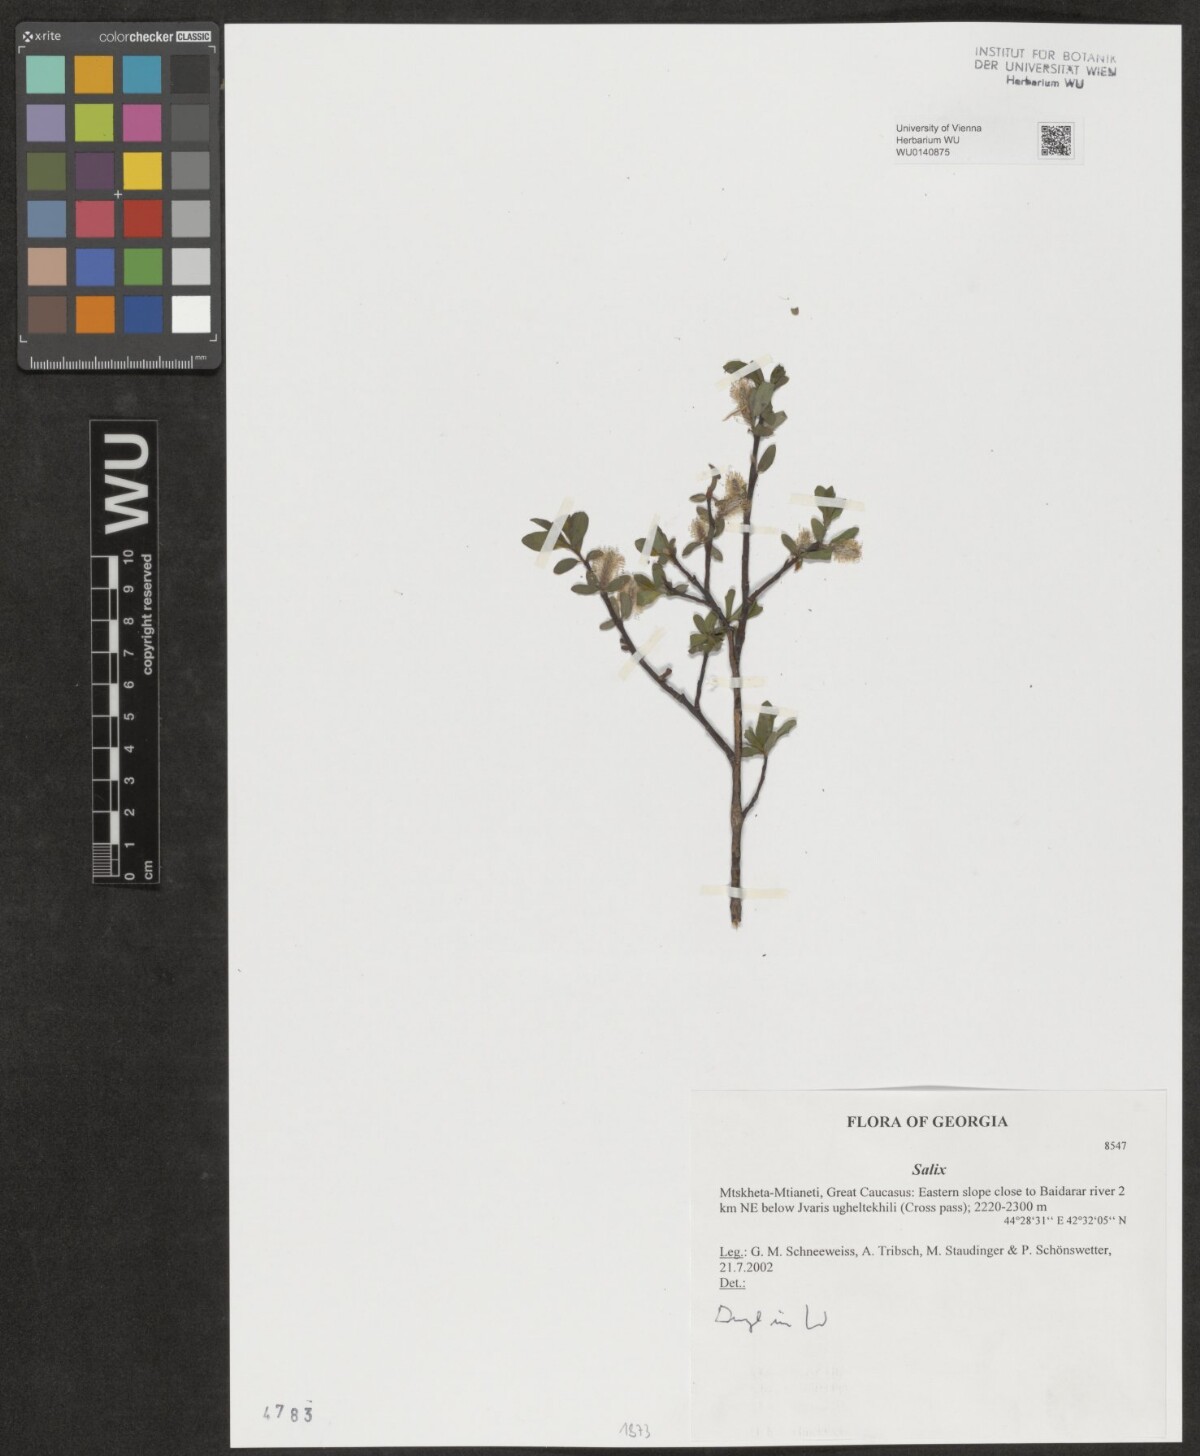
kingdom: Plantae
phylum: Tracheophyta
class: Magnoliopsida
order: Malpighiales
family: Salicaceae
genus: Salix
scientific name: Salix
